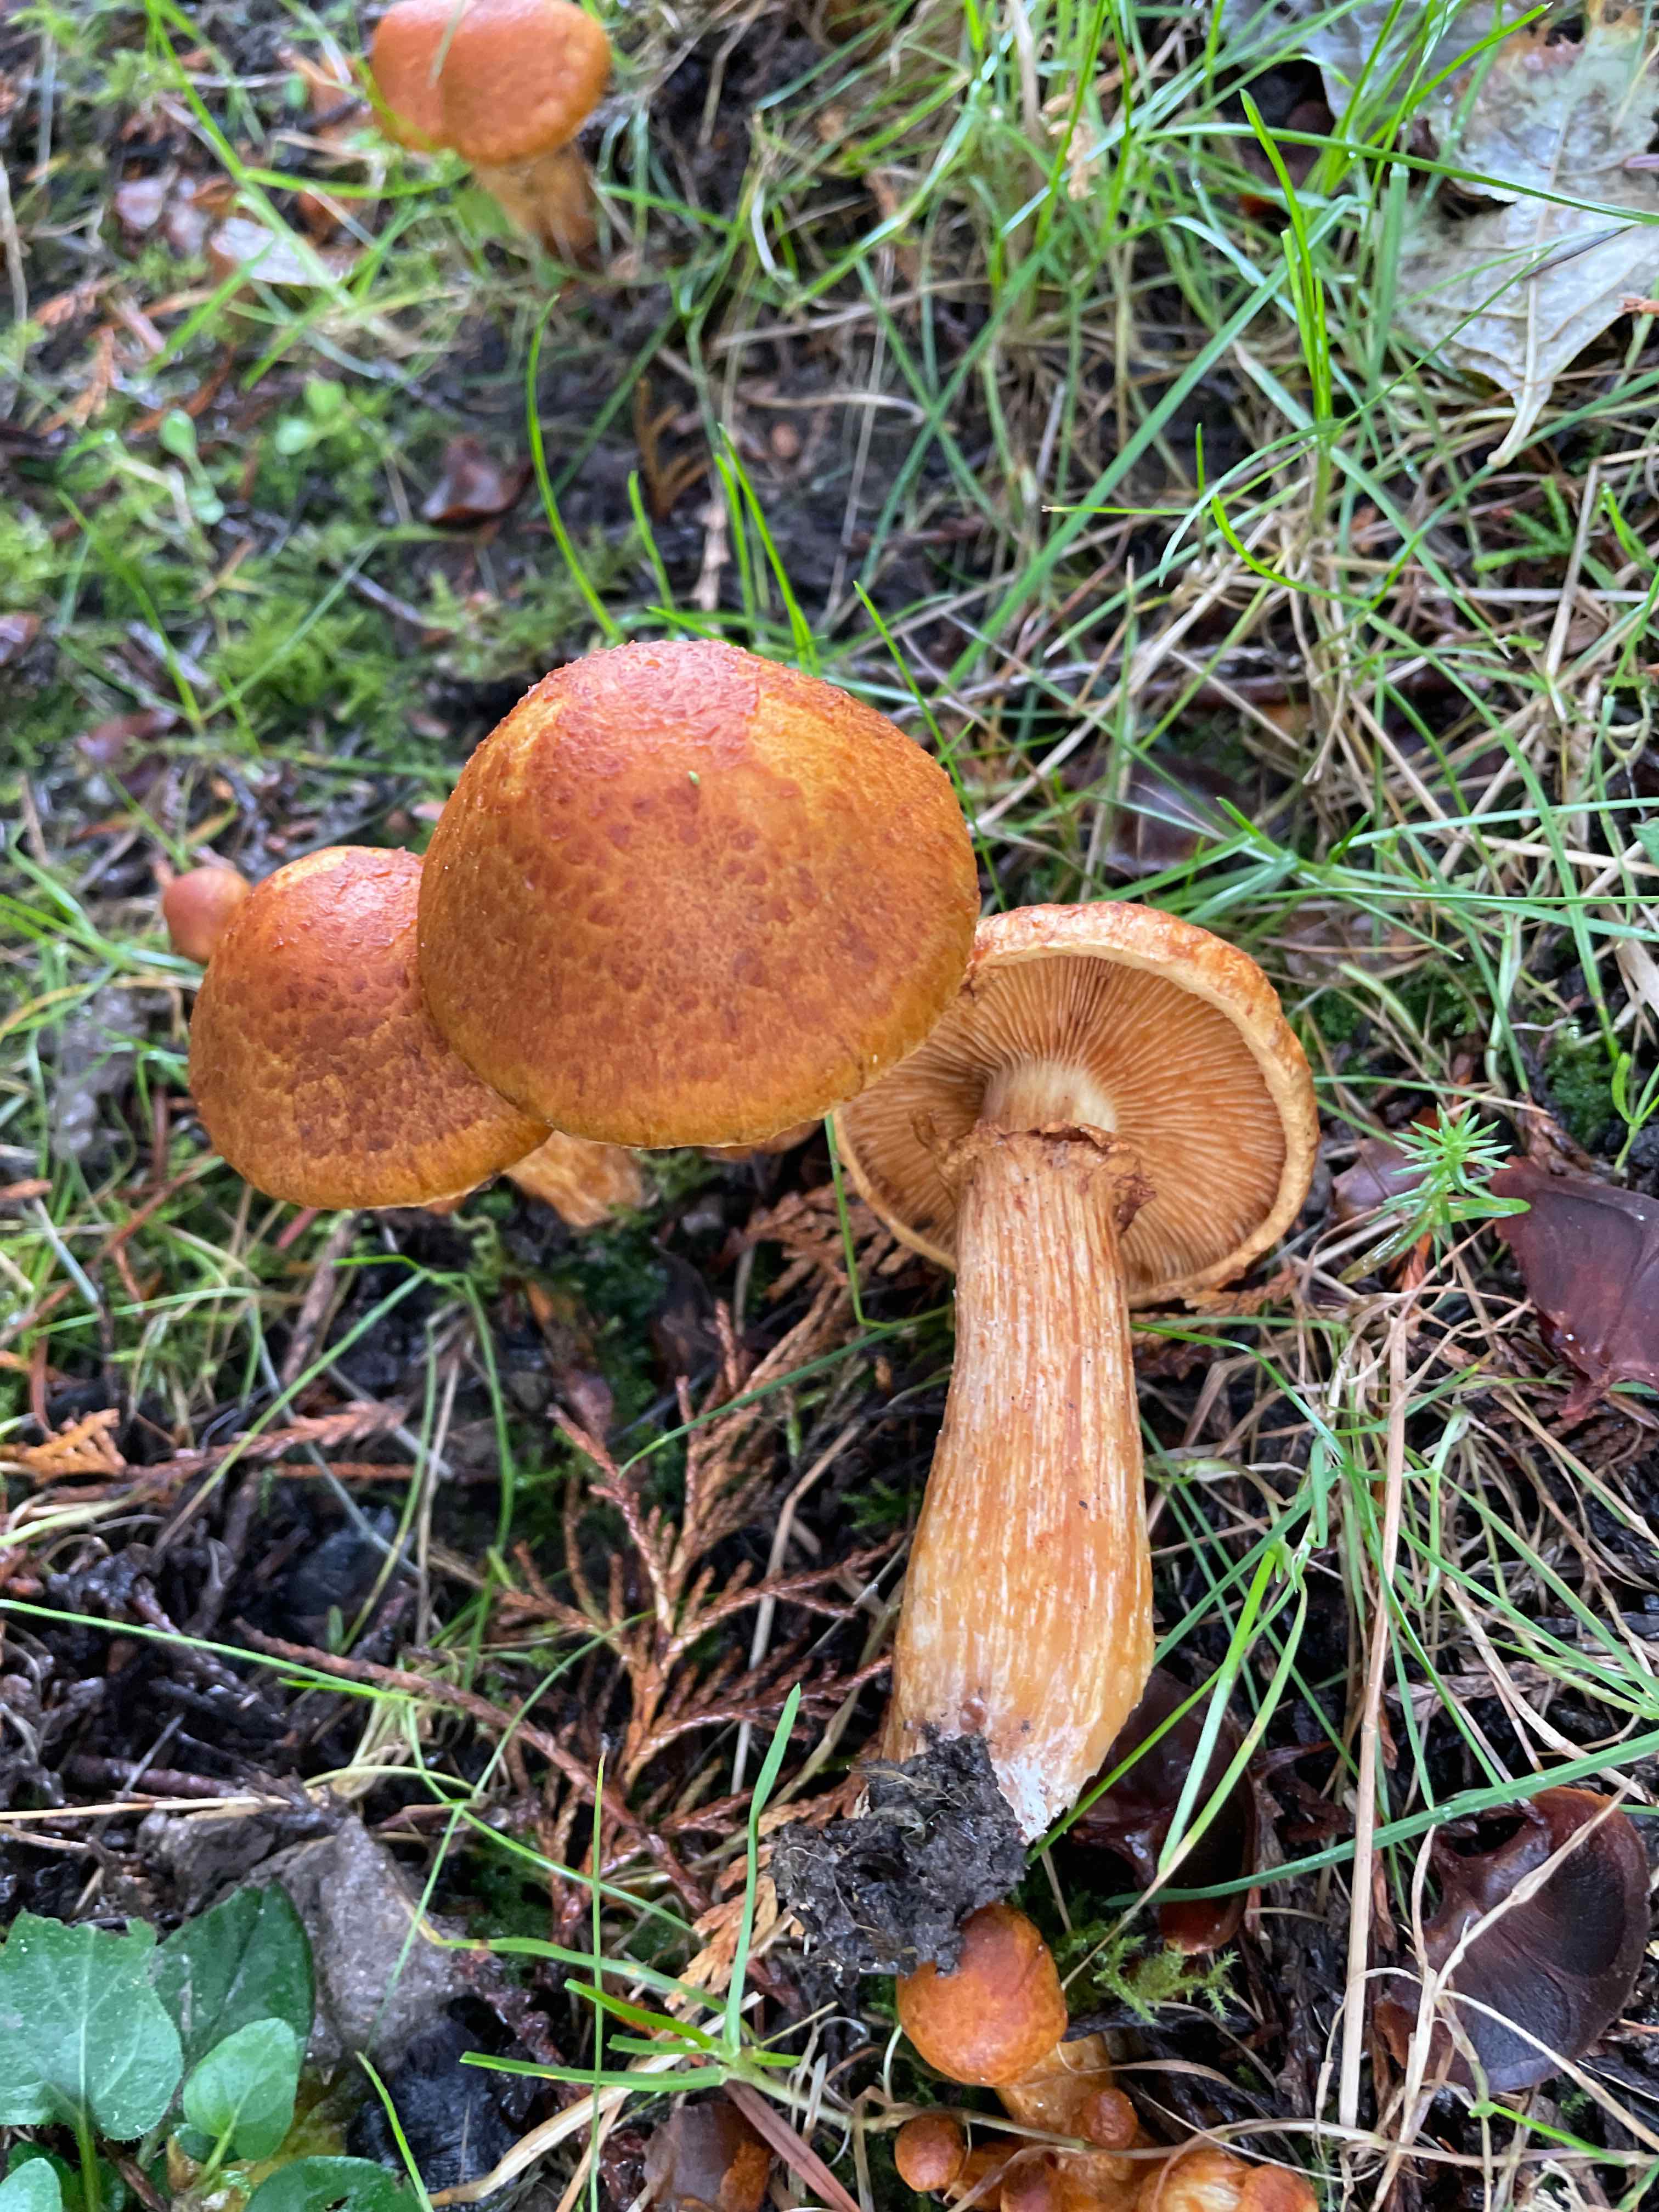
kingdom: Fungi
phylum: Basidiomycota
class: Agaricomycetes
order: Agaricales
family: Hymenogastraceae
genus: Gymnopilus
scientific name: Gymnopilus spectabilis
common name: fibret flammehat
